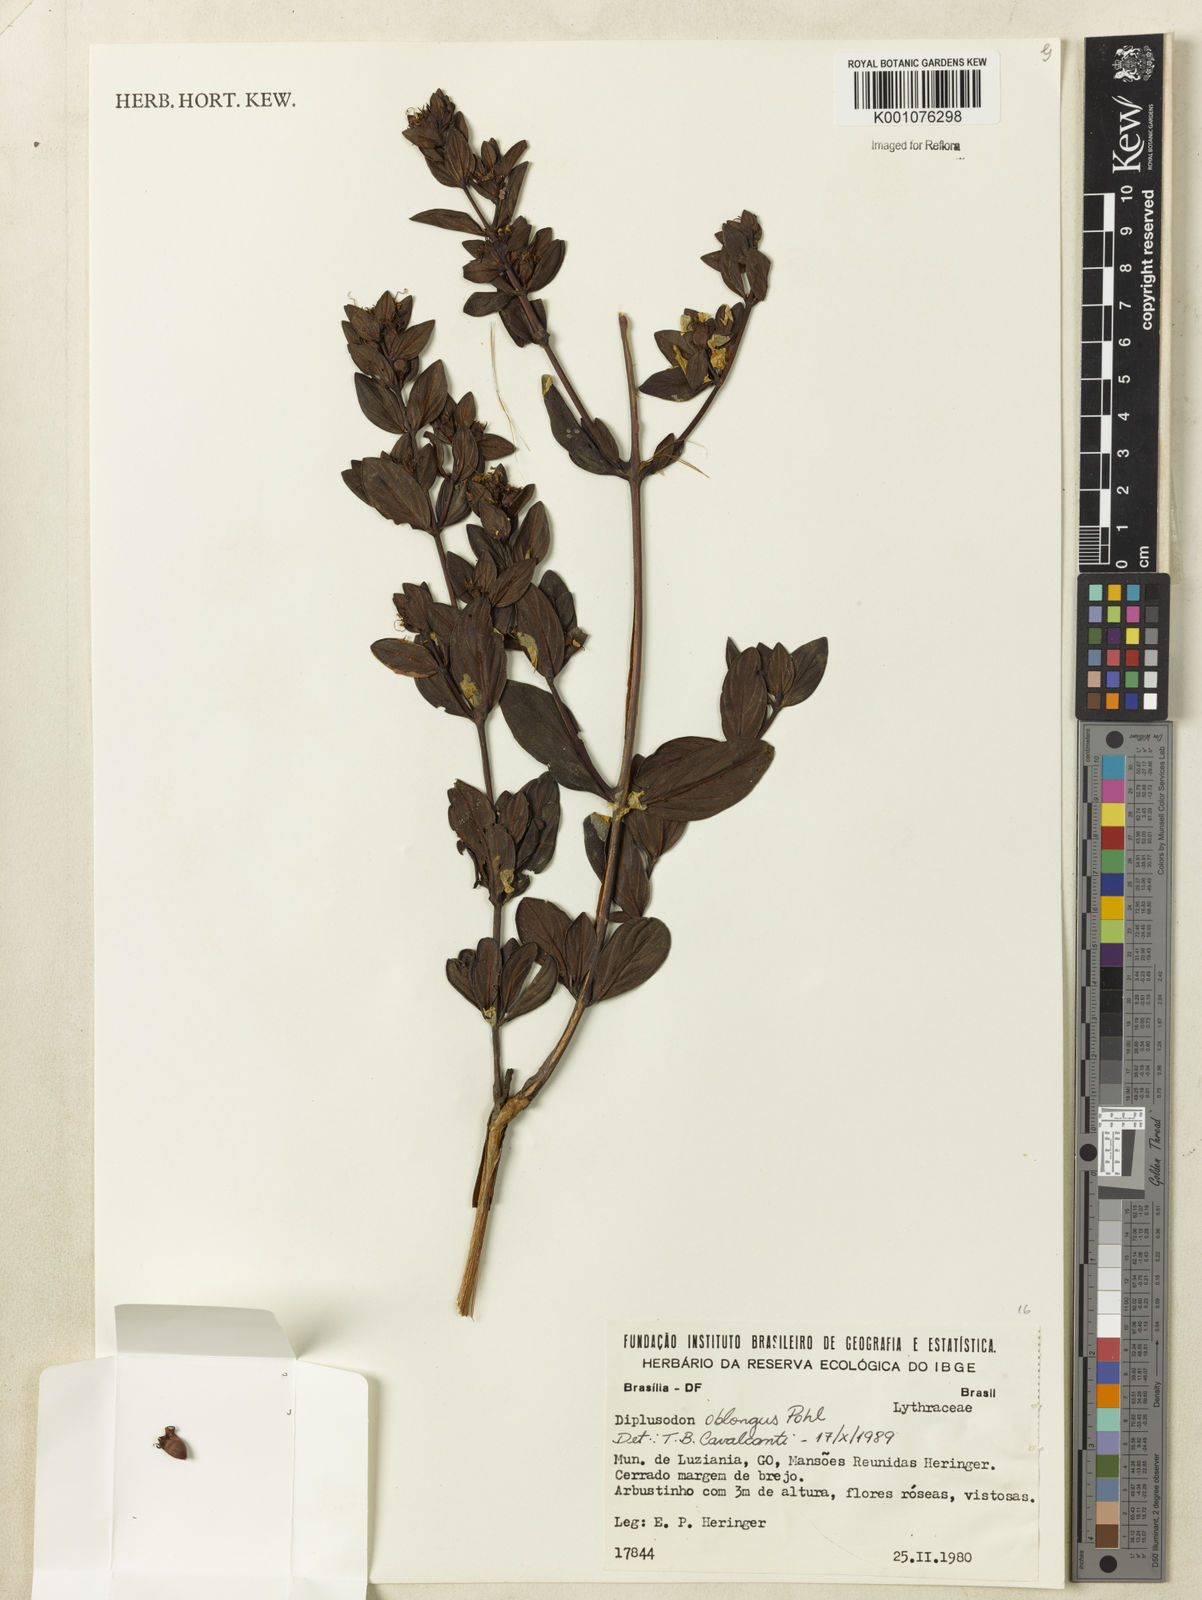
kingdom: Plantae
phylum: Tracheophyta
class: Magnoliopsida
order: Myrtales
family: Lythraceae
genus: Diplusodon
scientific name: Diplusodon oblongus
